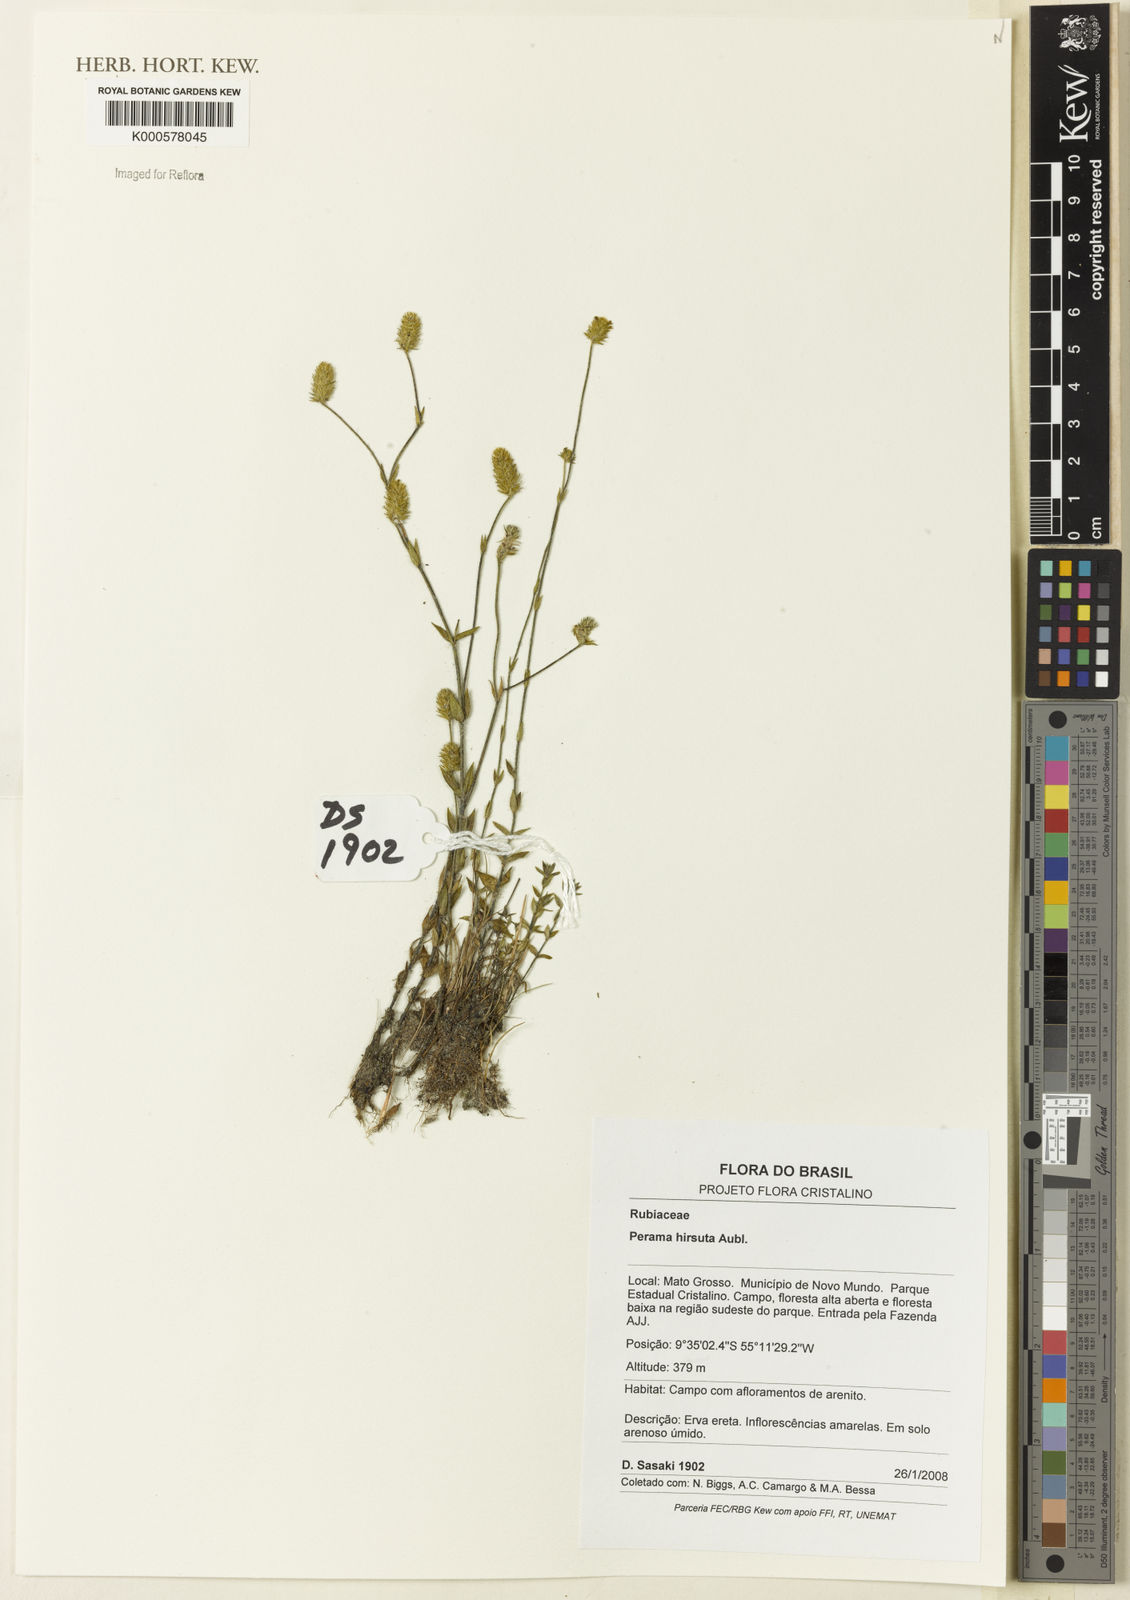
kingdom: Plantae
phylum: Tracheophyta
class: Magnoliopsida
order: Gentianales
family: Rubiaceae
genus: Perama
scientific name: Perama hirsuta
